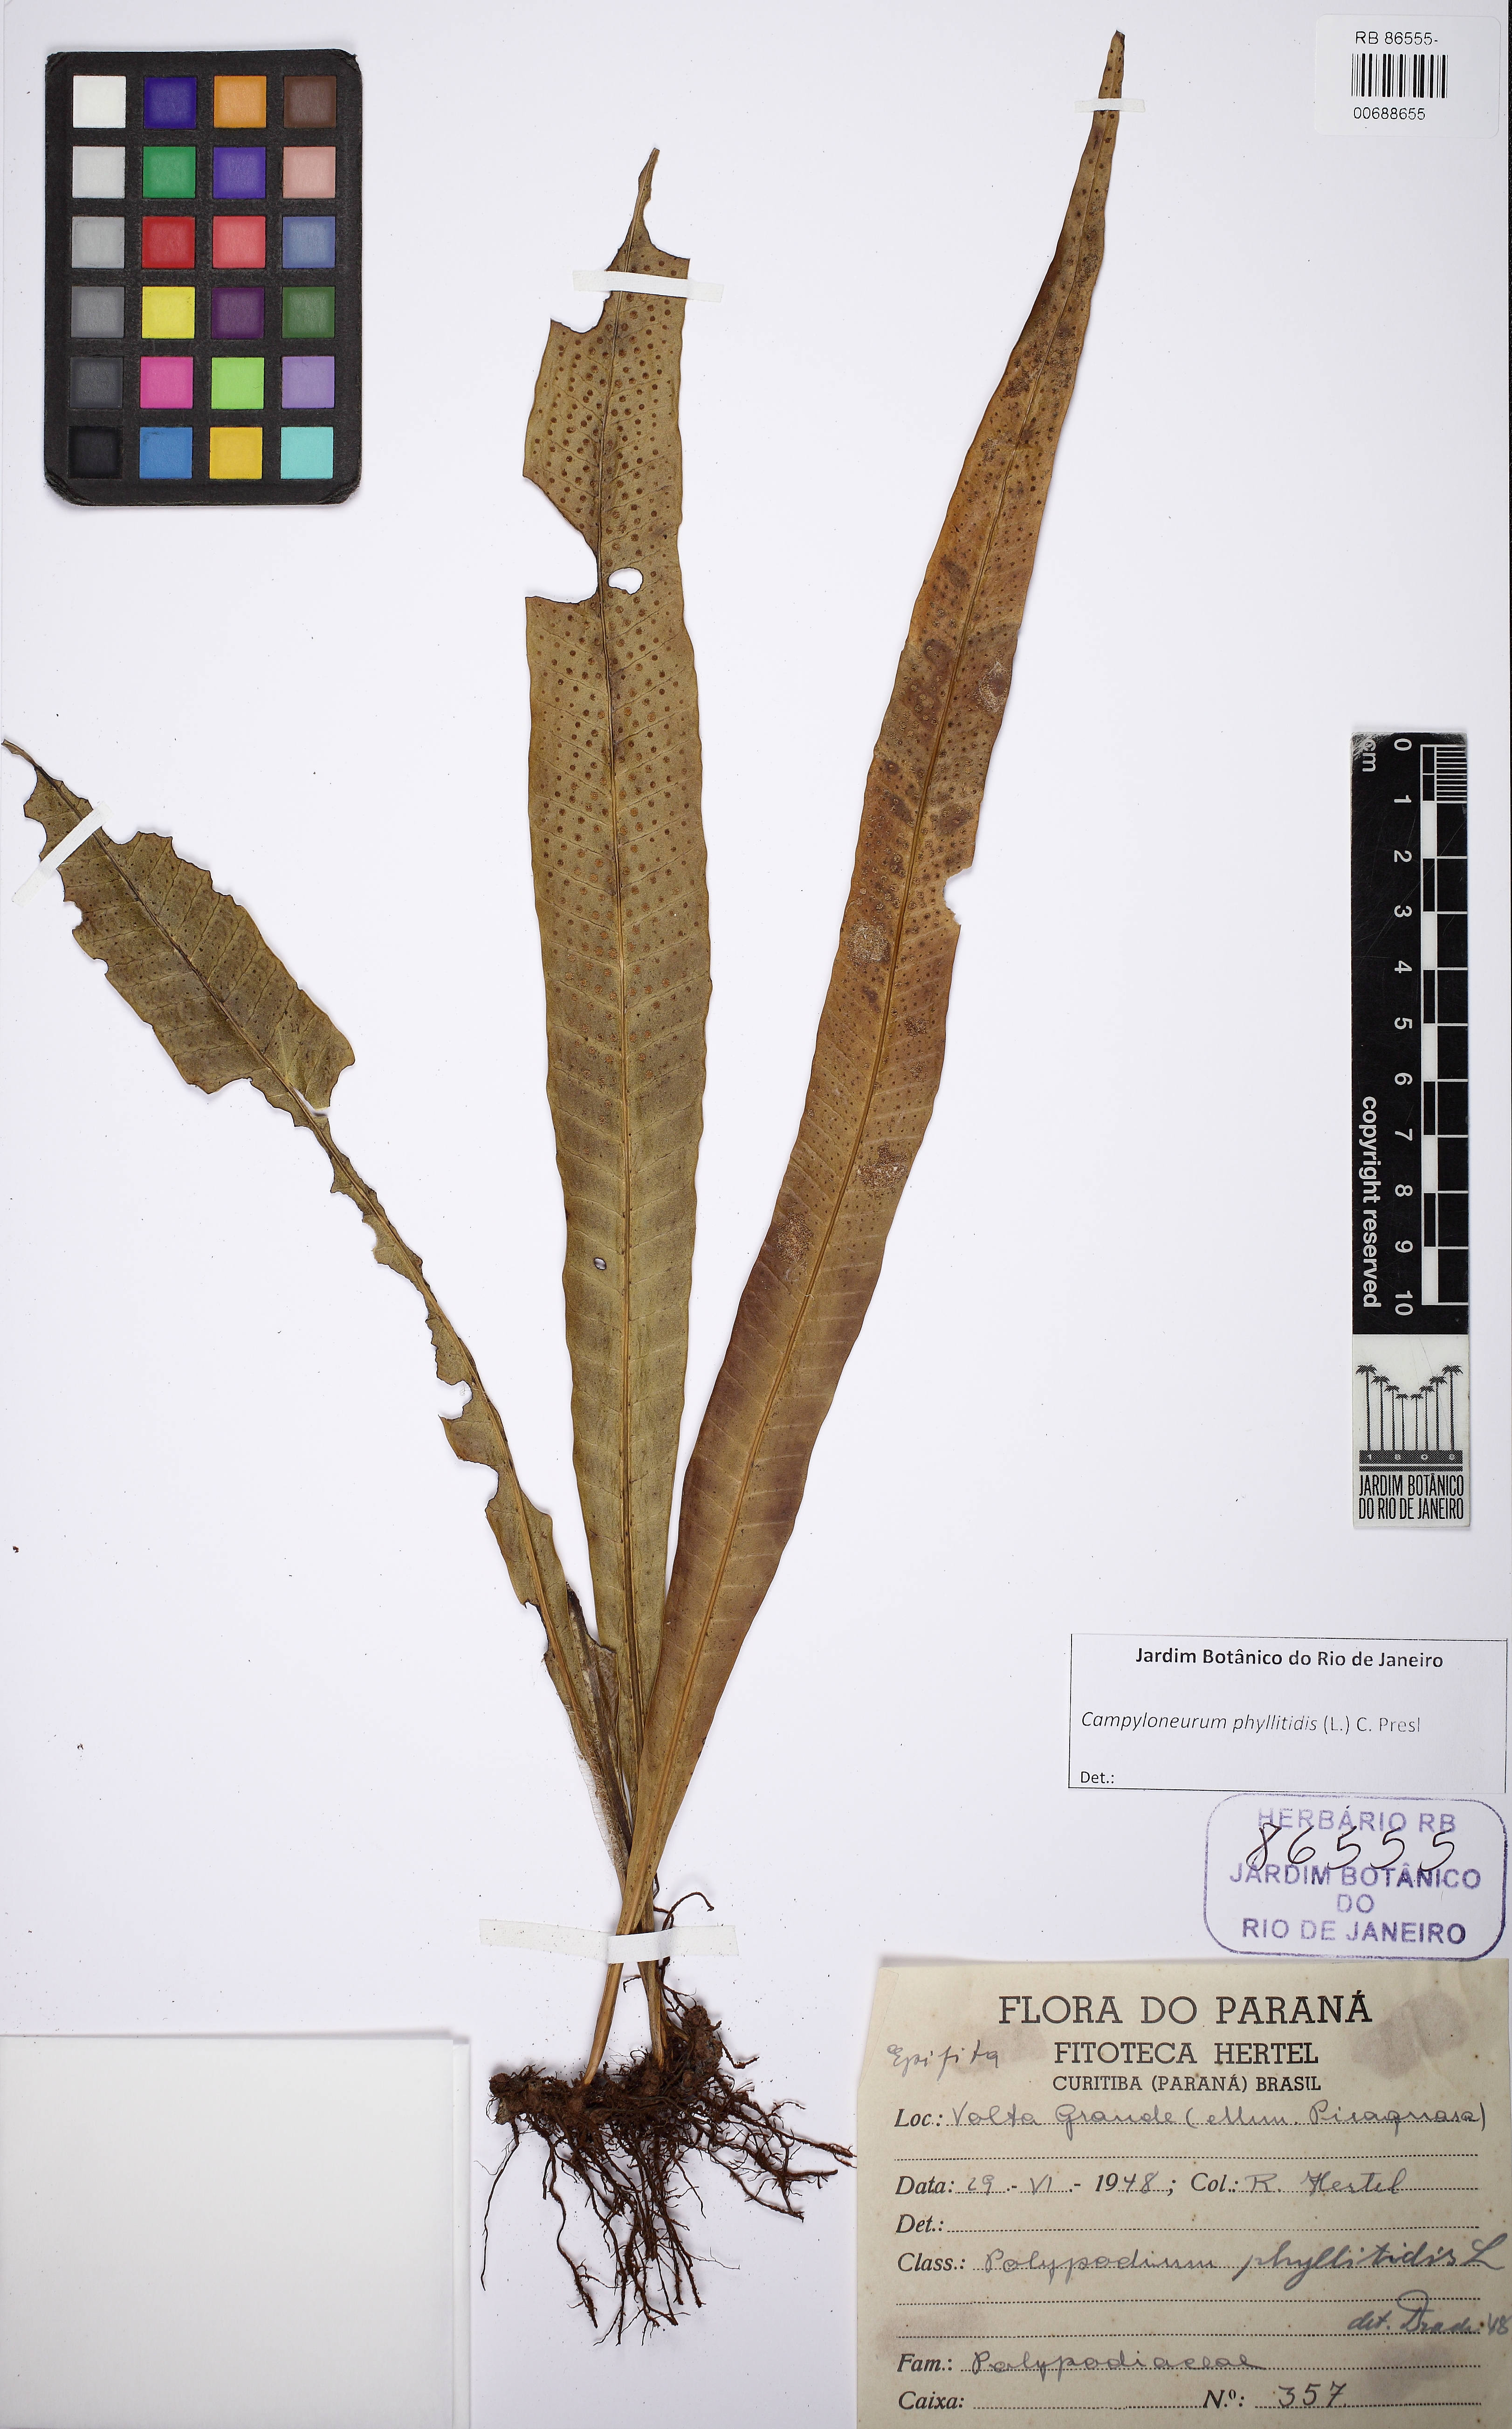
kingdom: Plantae
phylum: Tracheophyta
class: Polypodiopsida
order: Polypodiales
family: Polypodiaceae
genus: Campyloneurum
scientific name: Campyloneurum phyllitidis
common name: Cow-tongue fern
